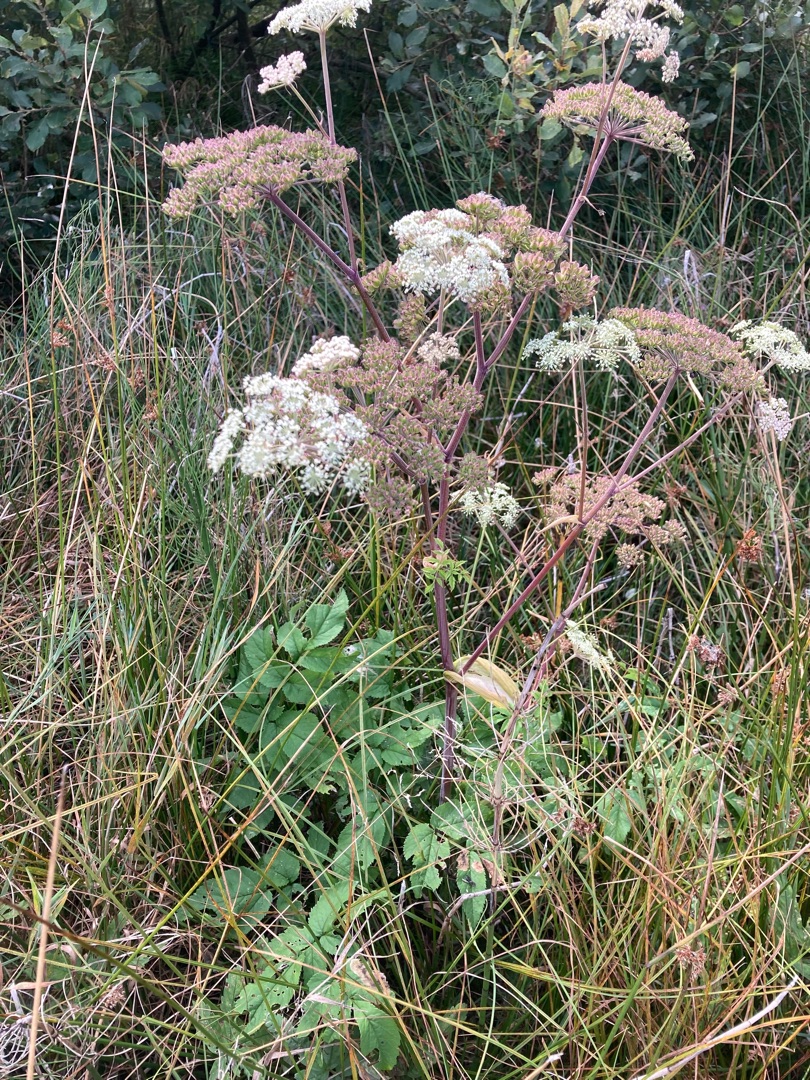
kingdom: Plantae
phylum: Tracheophyta
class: Magnoliopsida
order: Apiales
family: Apiaceae
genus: Angelica
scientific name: Angelica sylvestris
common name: Angelik
